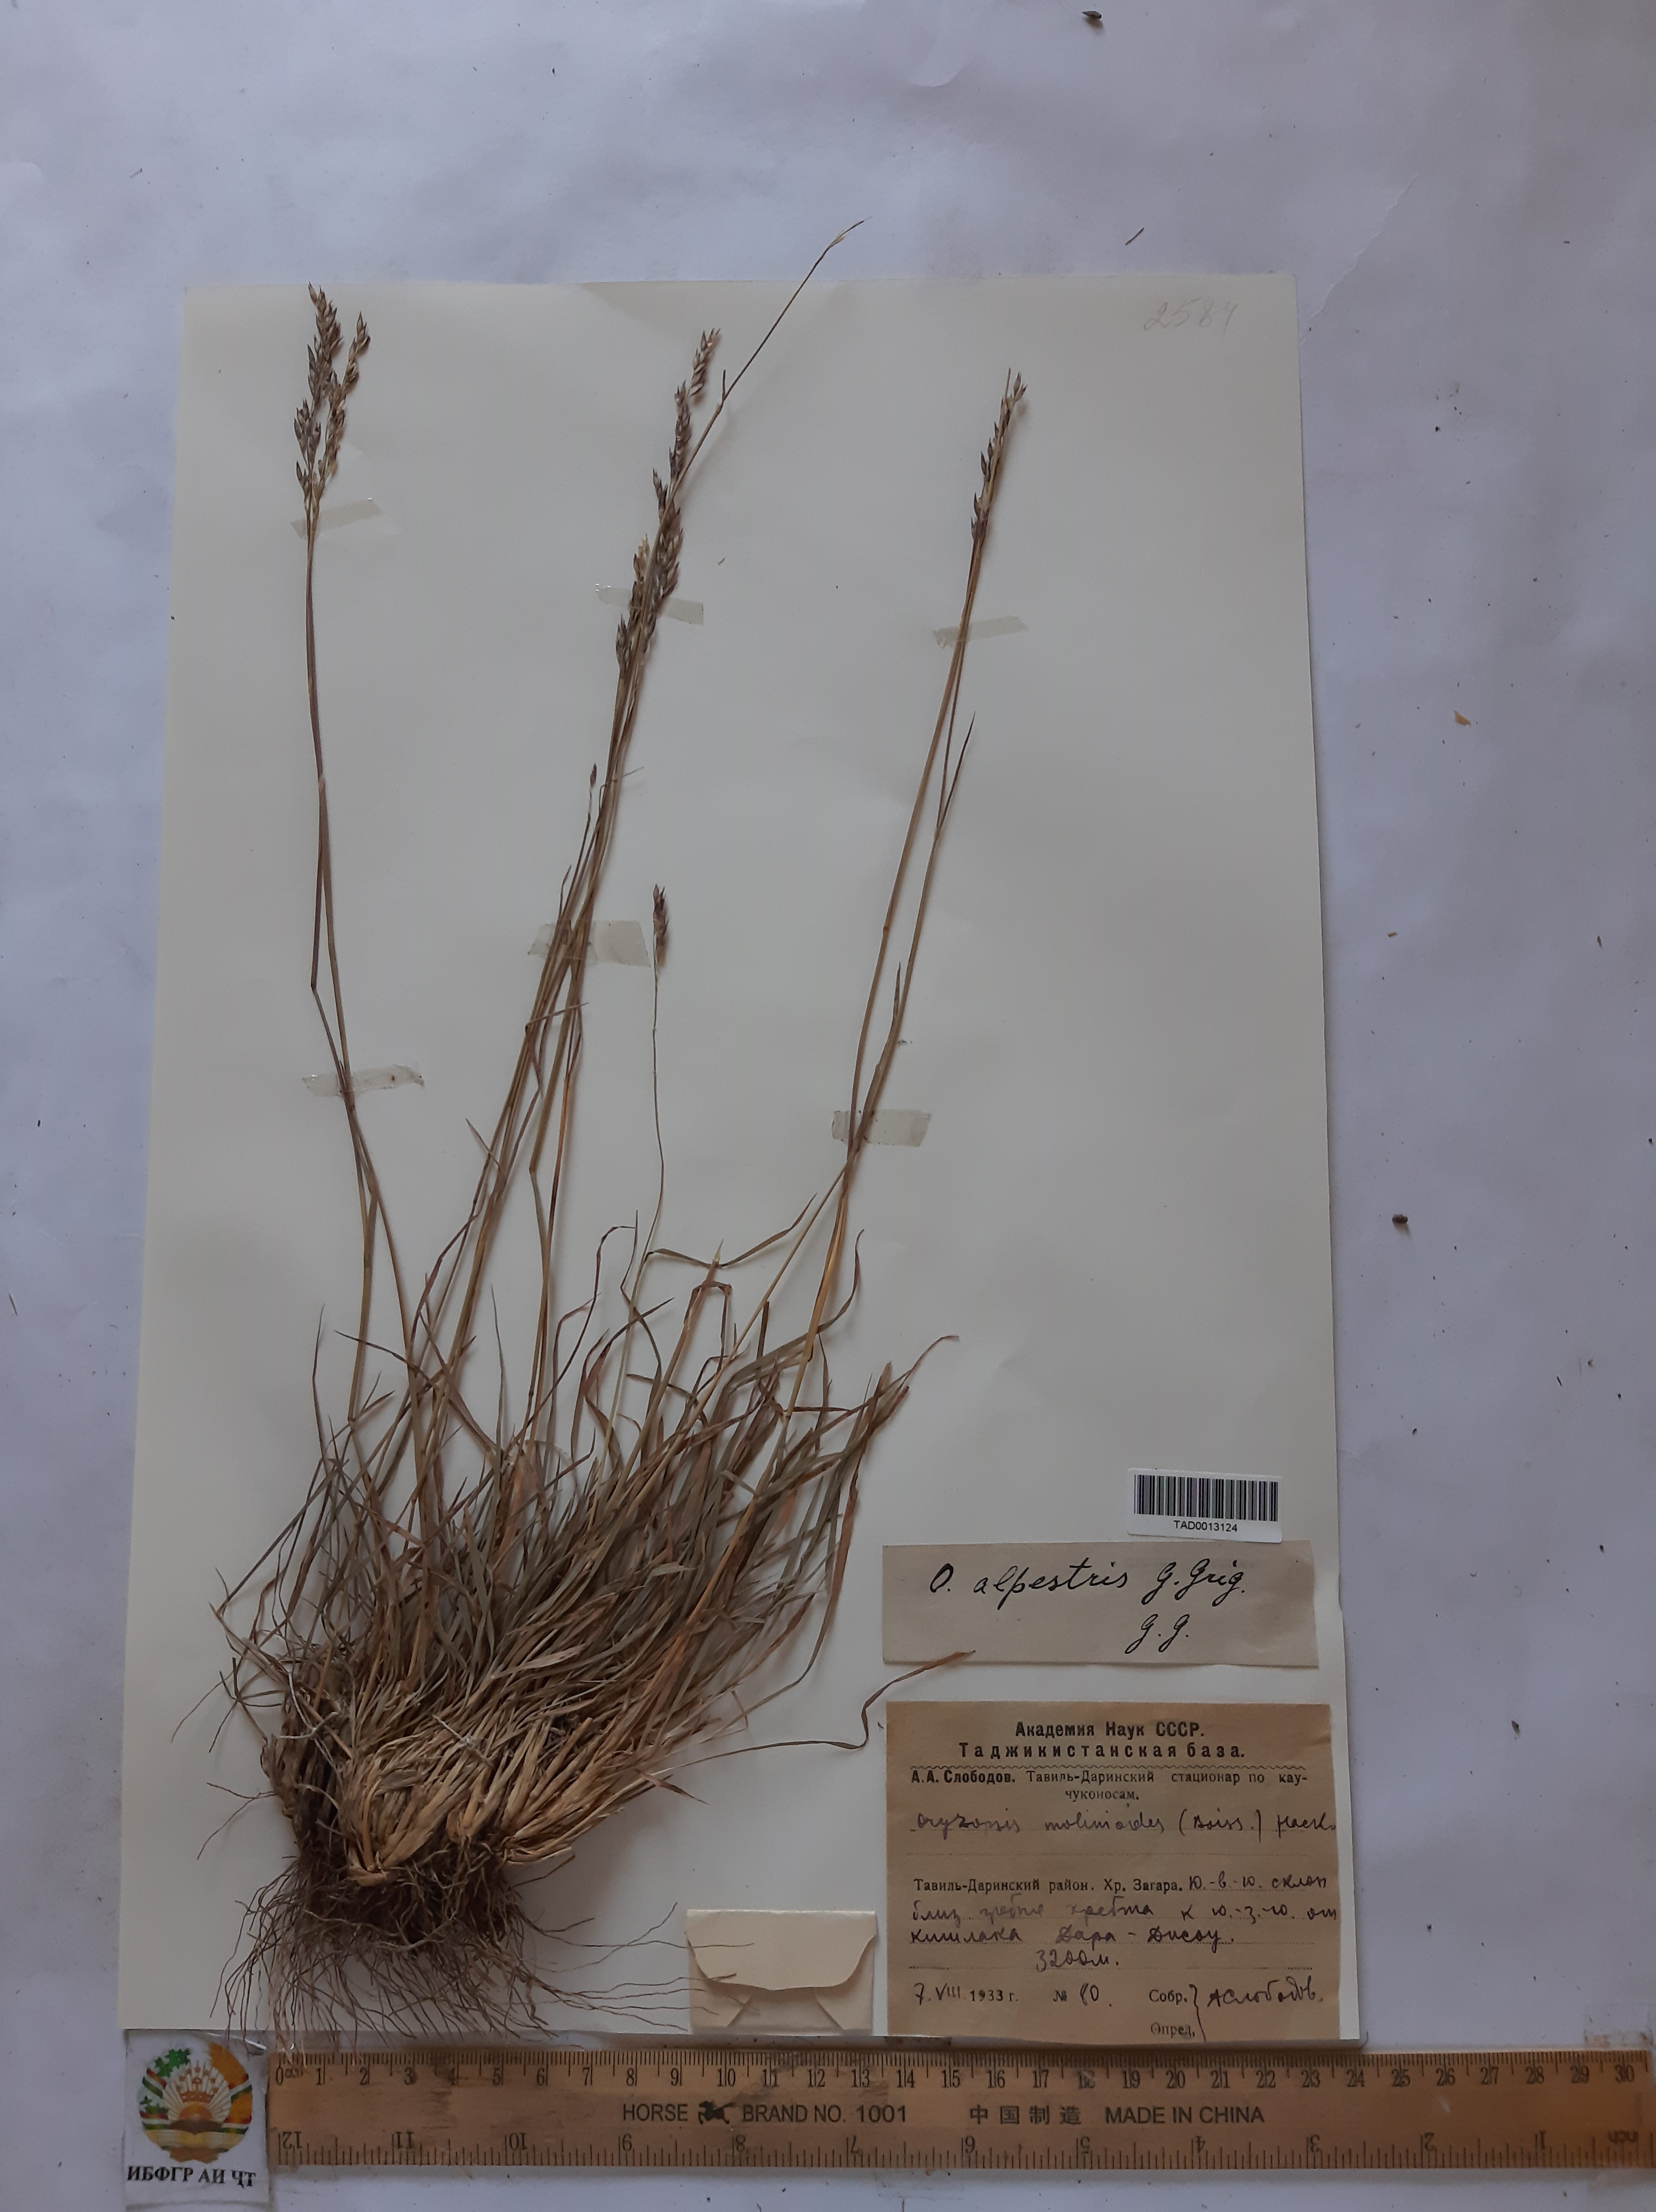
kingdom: Plantae
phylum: Tracheophyta
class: Liliopsida
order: Poales
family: Poaceae
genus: Piptatherum
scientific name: Piptatherum alpestre
